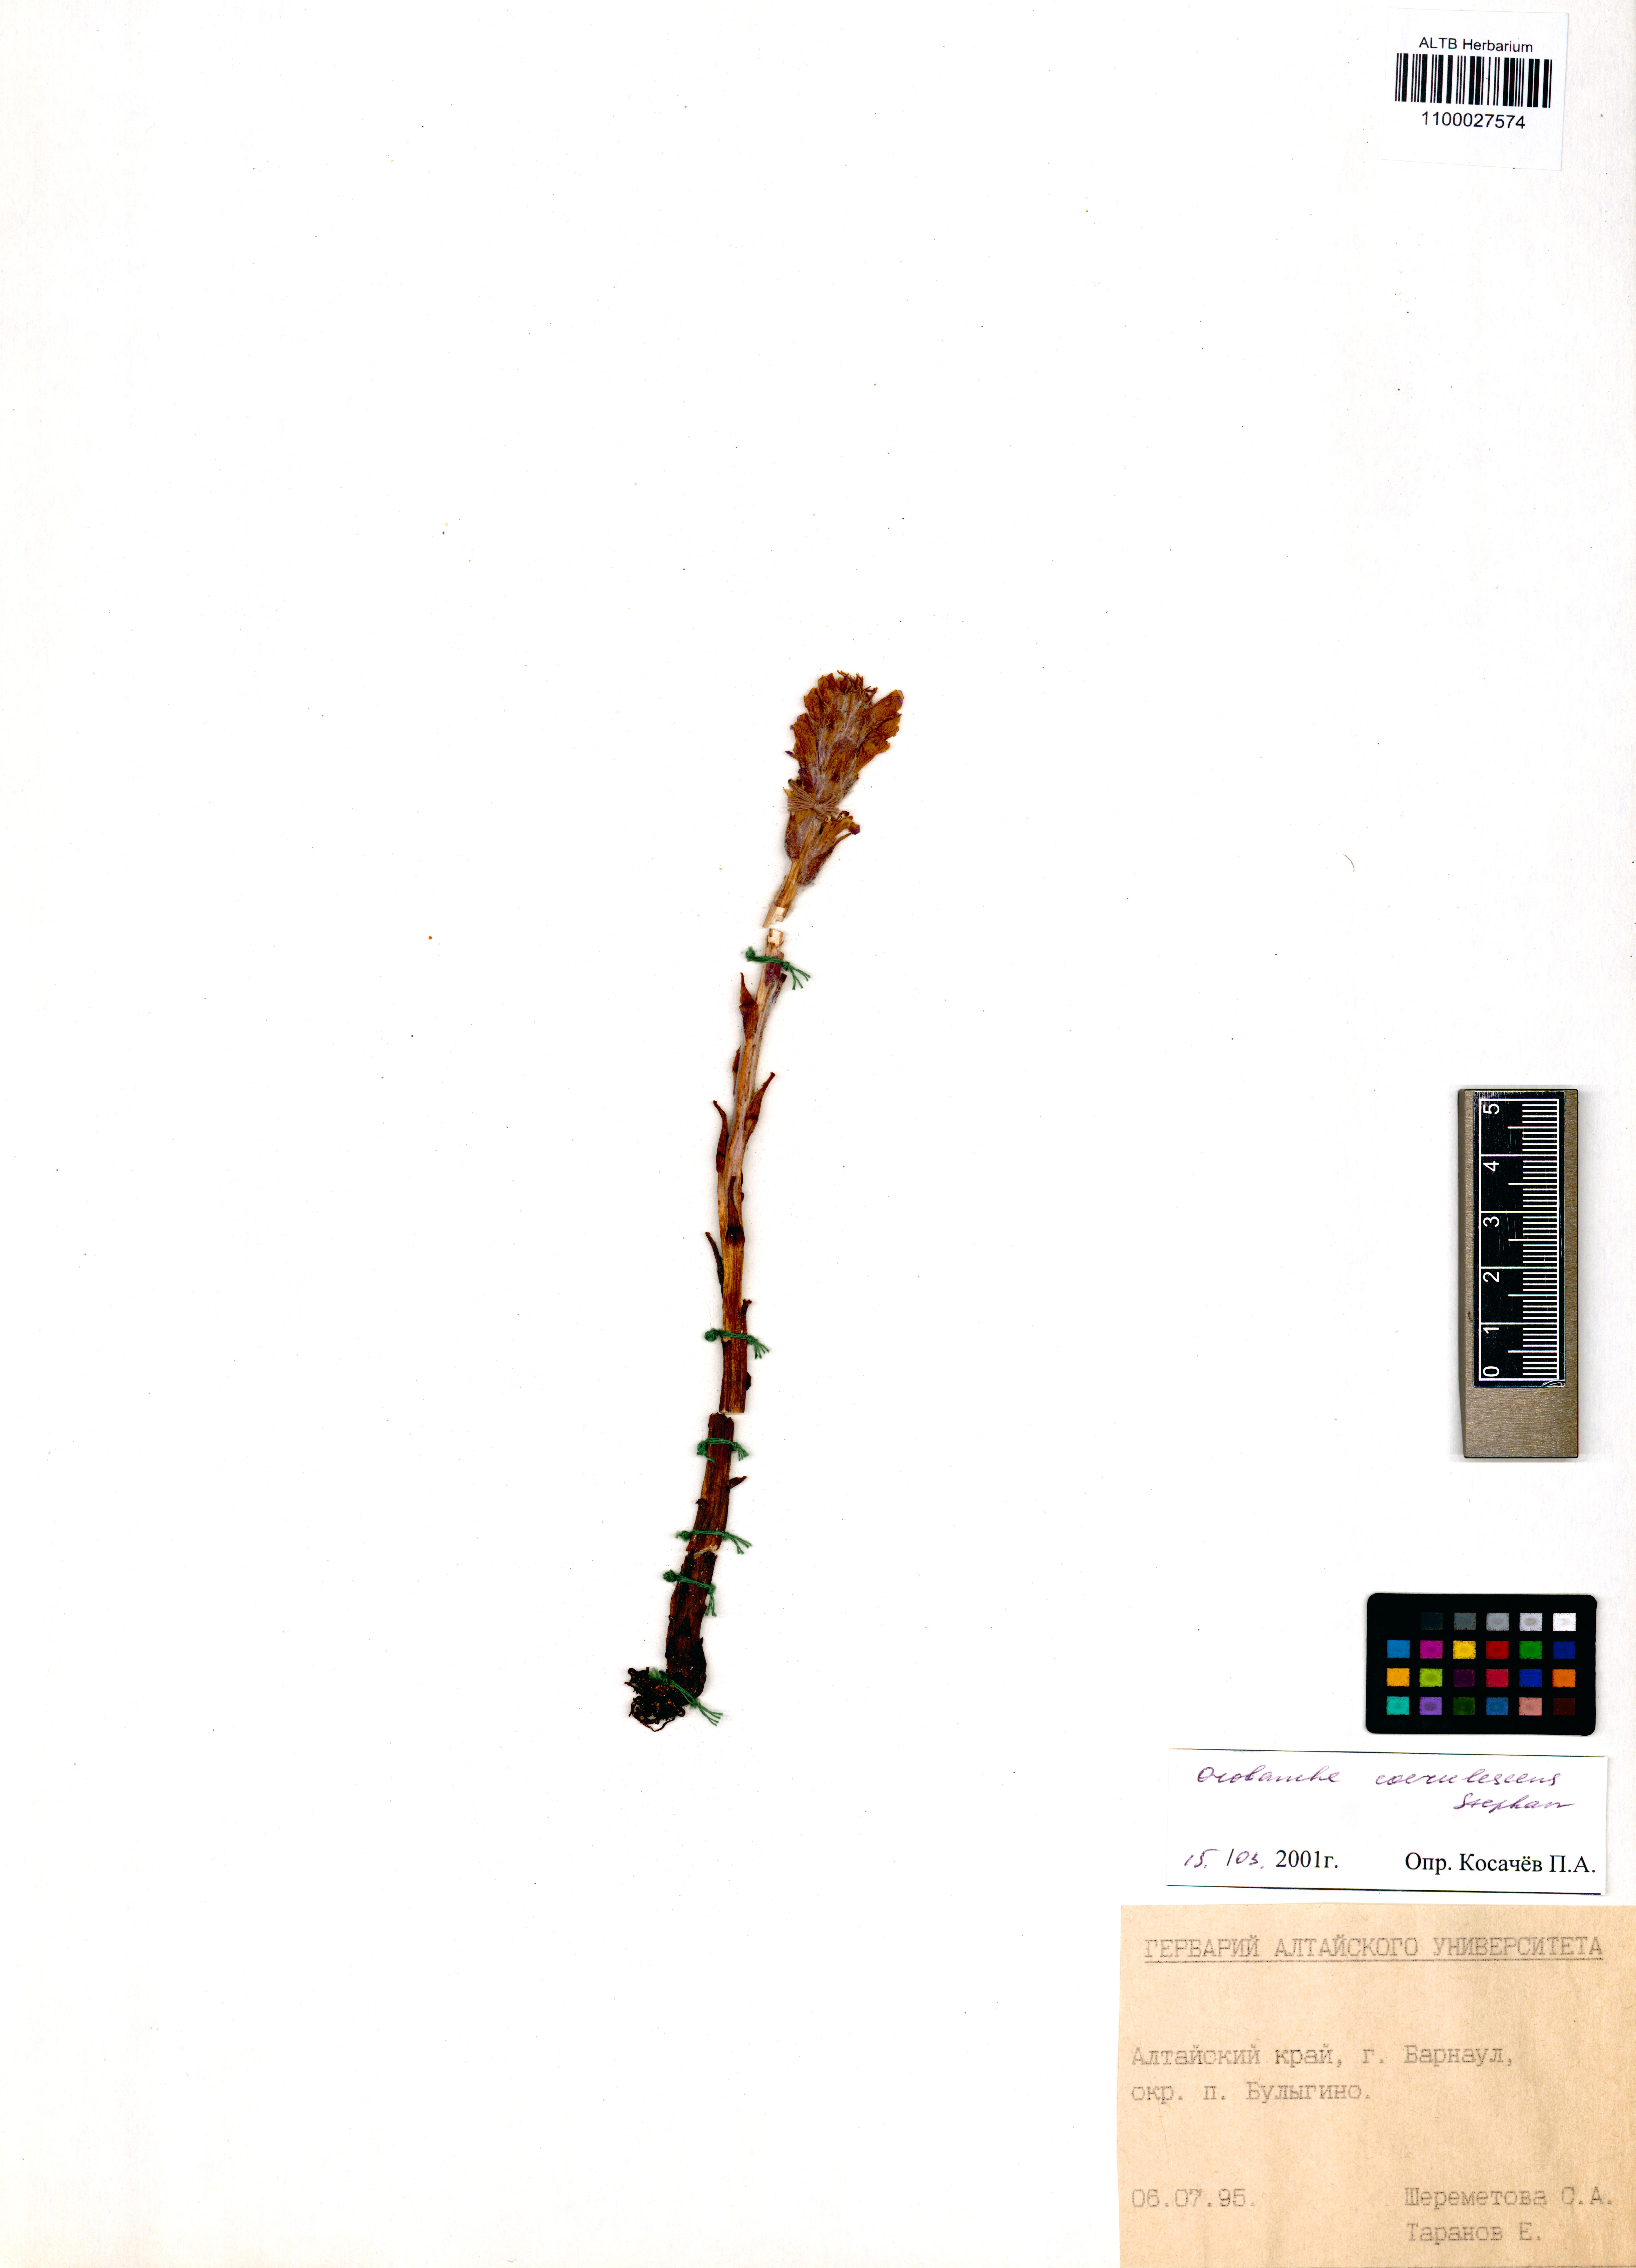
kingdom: Plantae
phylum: Tracheophyta
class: Magnoliopsida
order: Lamiales
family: Orobanchaceae
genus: Orobanche
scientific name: Orobanche coerulescens
